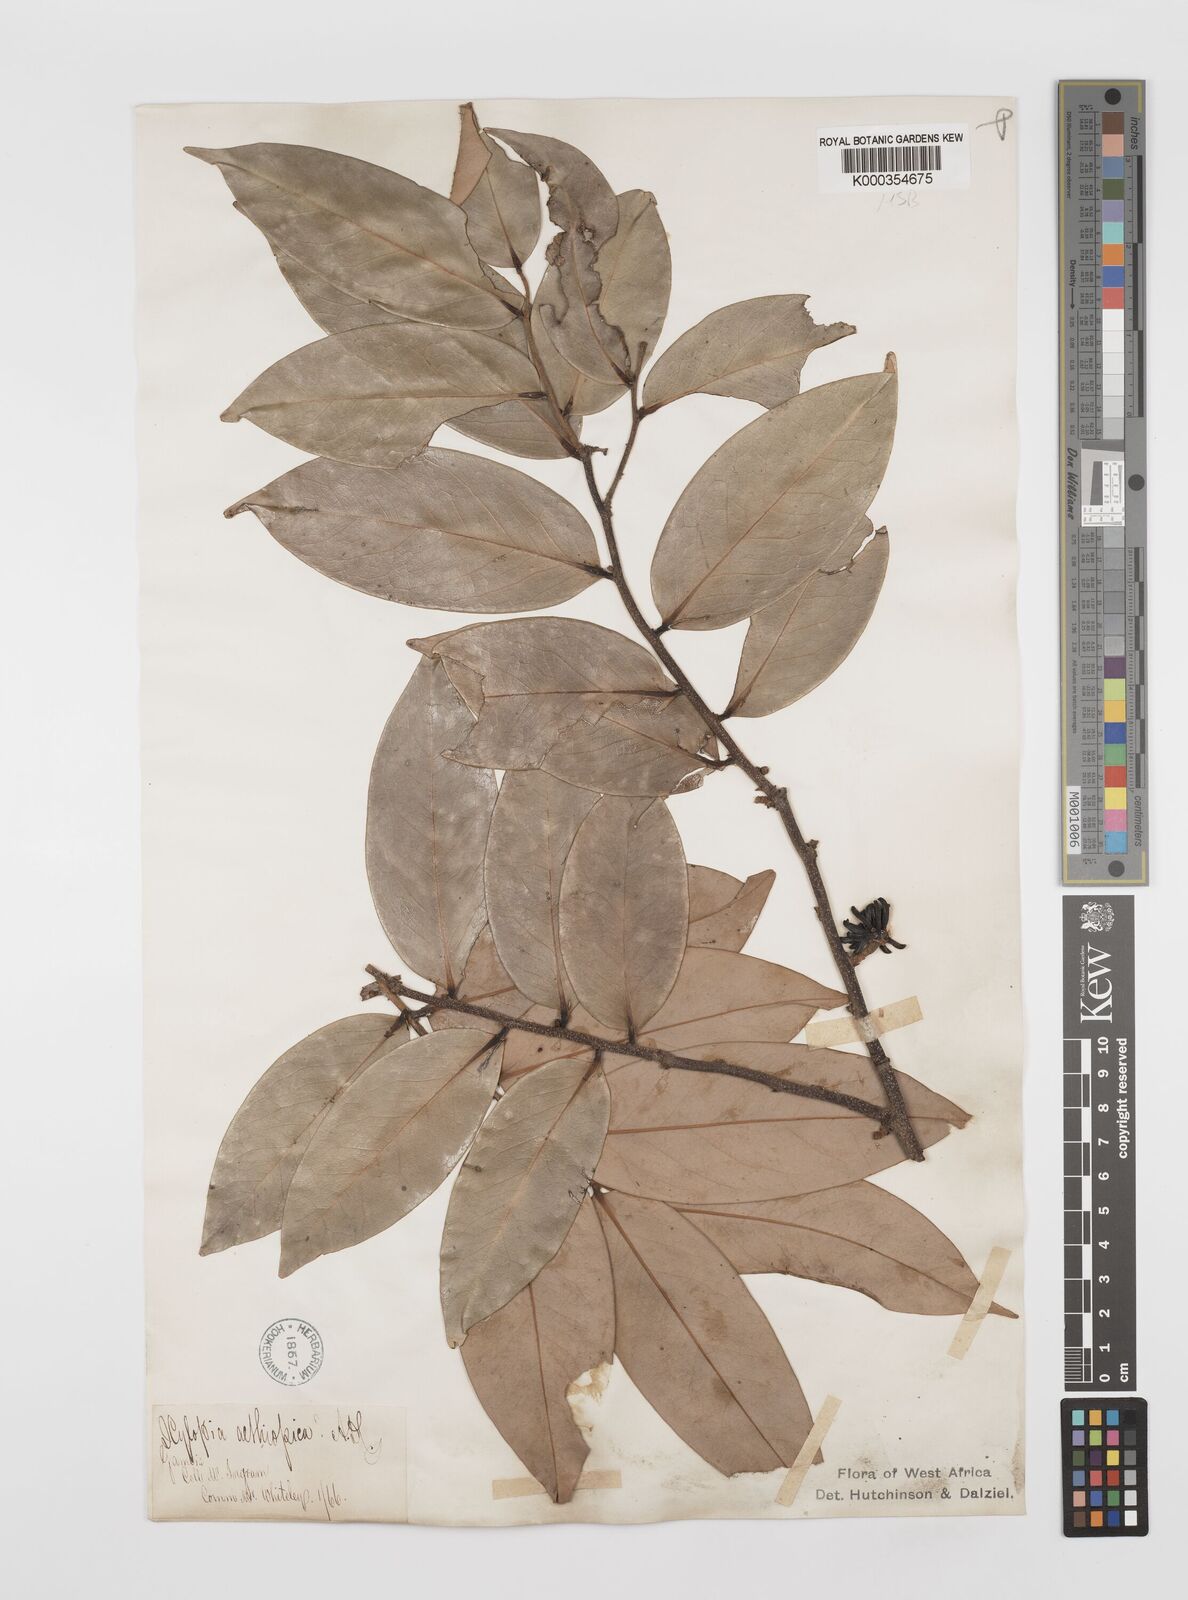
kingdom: Plantae
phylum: Tracheophyta
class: Magnoliopsida
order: Magnoliales
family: Annonaceae
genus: Xylopia
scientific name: Xylopia aethiopica
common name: Ethiopian-pepper
